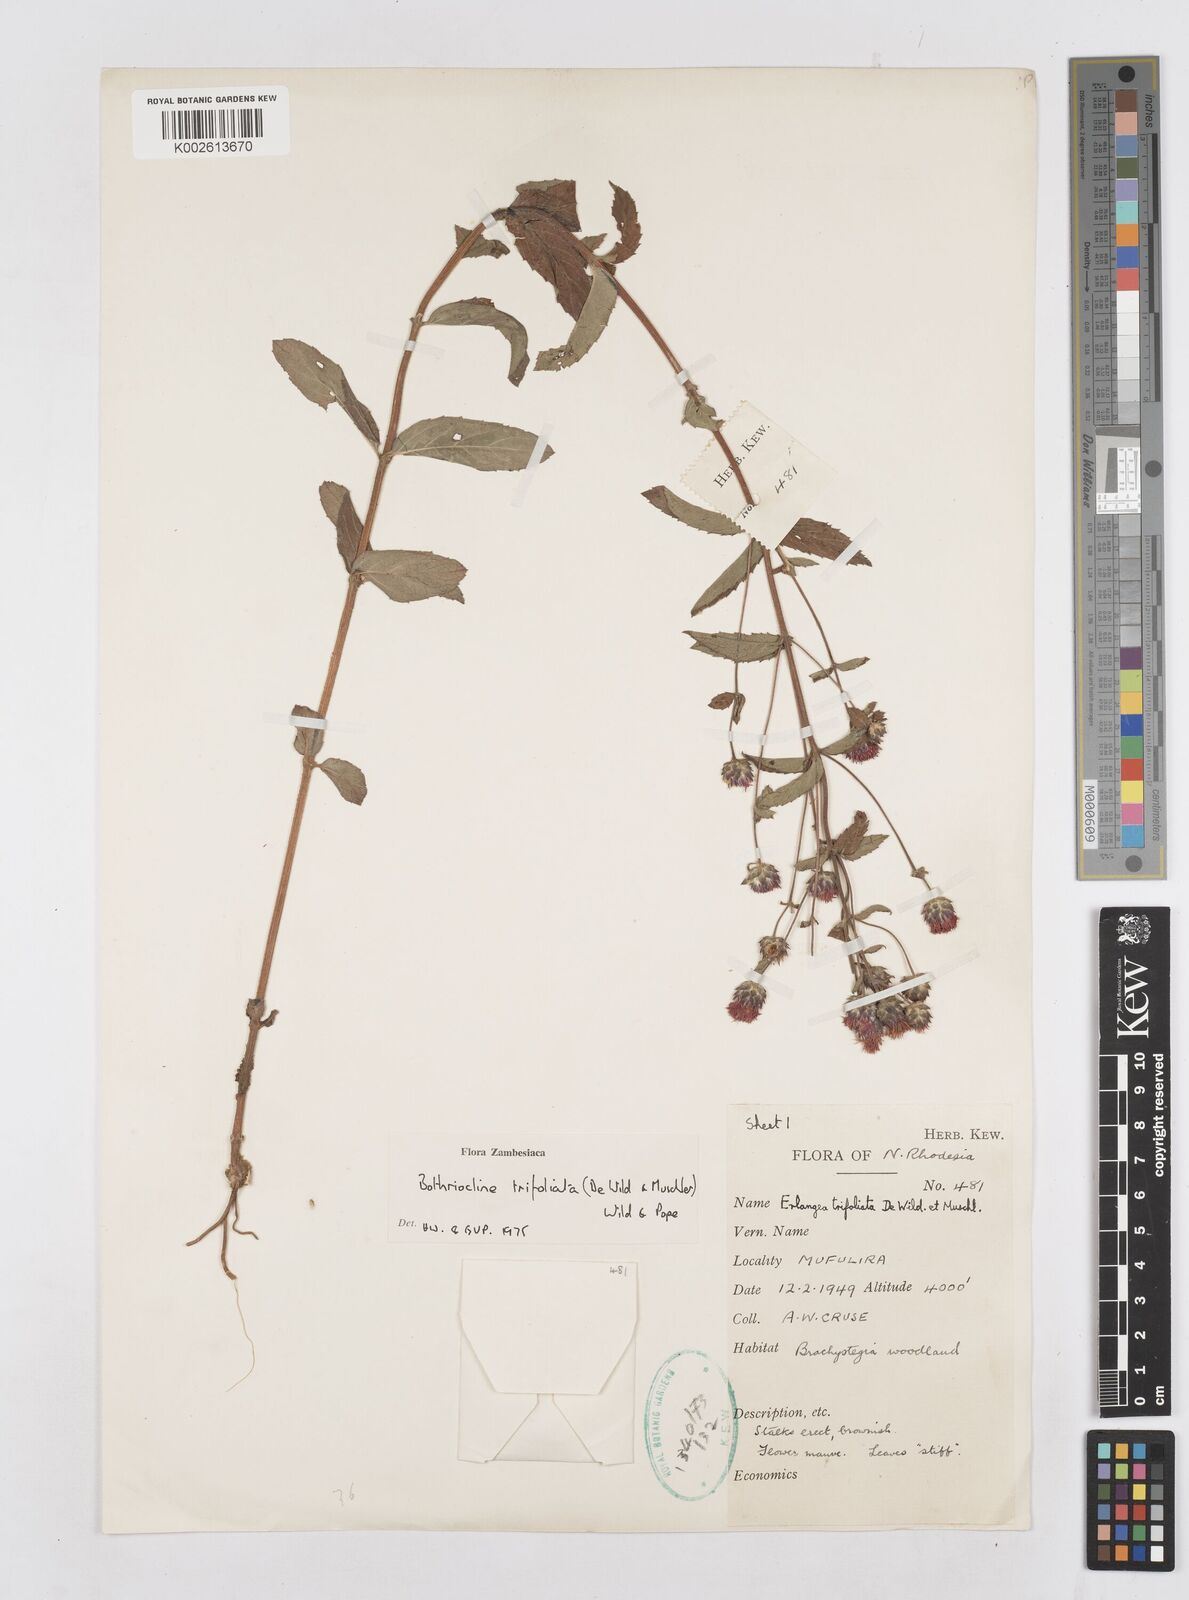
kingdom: Plantae
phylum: Tracheophyta
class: Magnoliopsida
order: Asterales
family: Asteraceae
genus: Bothriocline
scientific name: Bothriocline trifoliata
